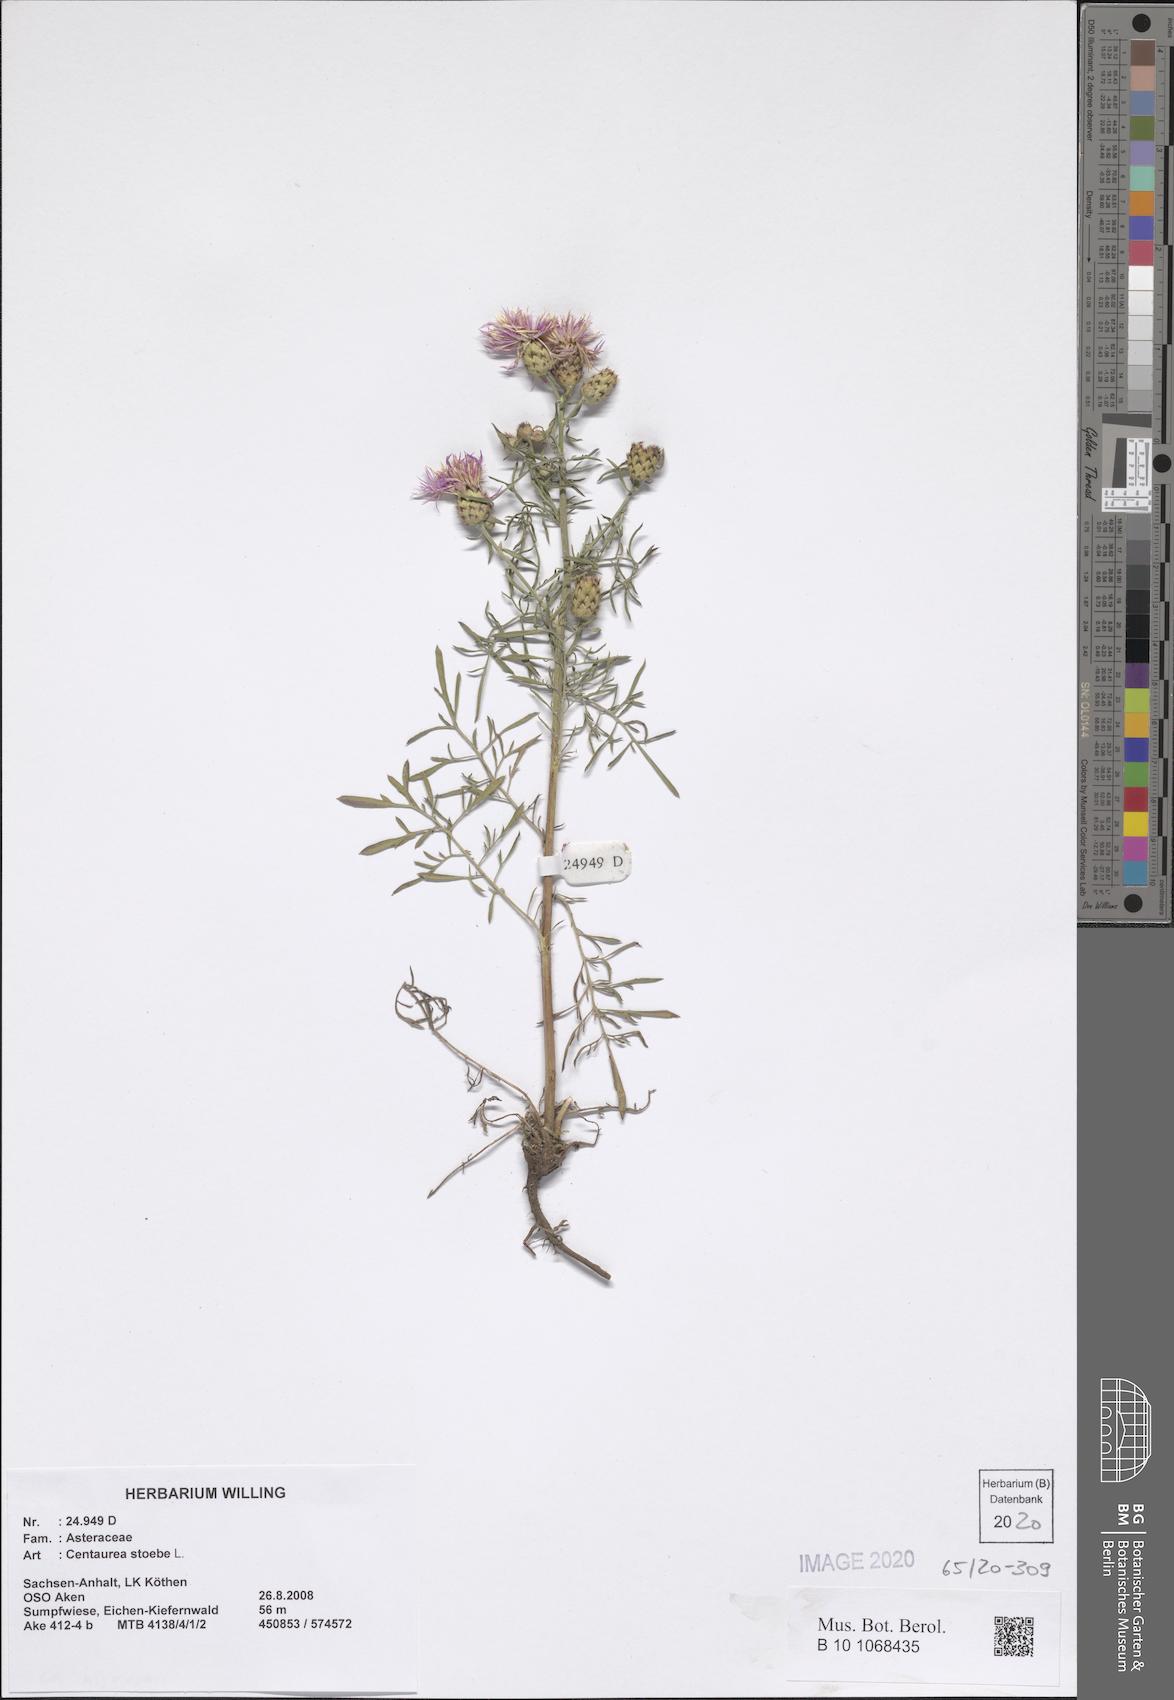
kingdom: Plantae
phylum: Tracheophyta
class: Magnoliopsida
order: Asterales
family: Asteraceae
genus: Centaurea
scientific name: Centaurea stoebe
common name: Spotted knapweed
